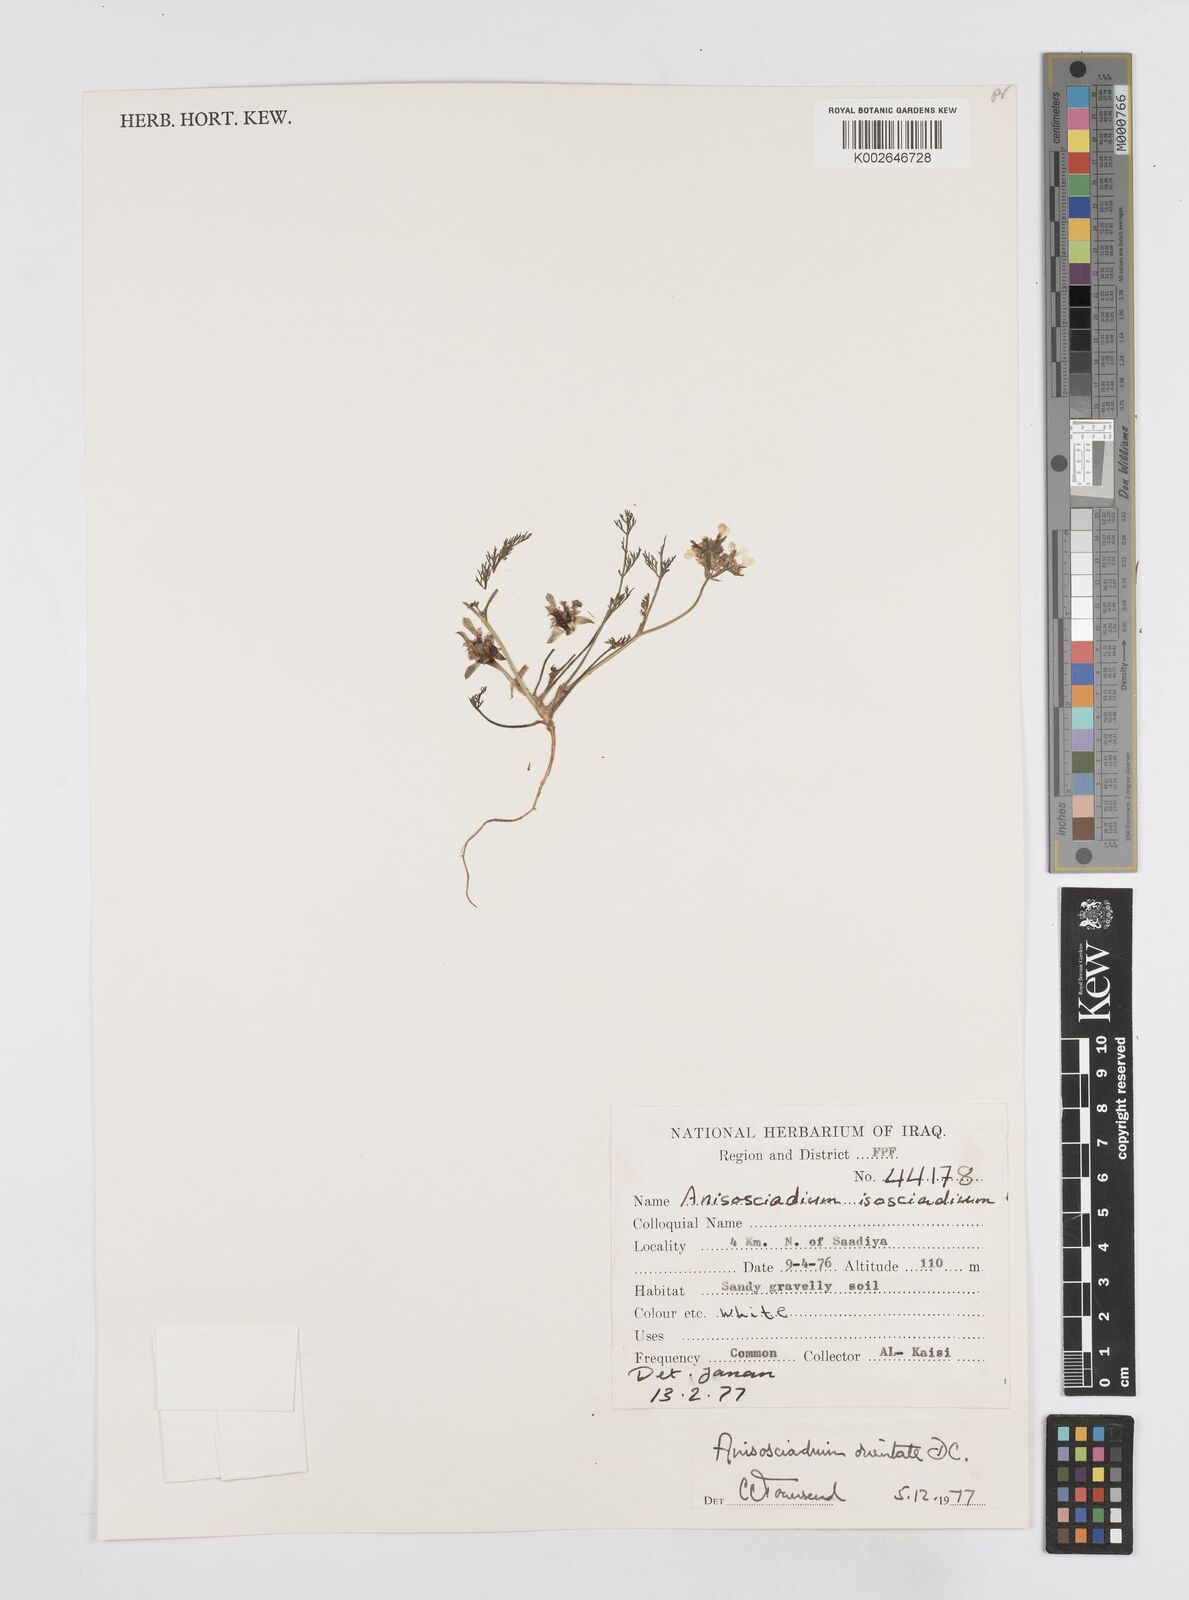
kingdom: Plantae
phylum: Tracheophyta
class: Magnoliopsida
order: Apiales
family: Apiaceae
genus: Anisosciadium
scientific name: Anisosciadium orientale
